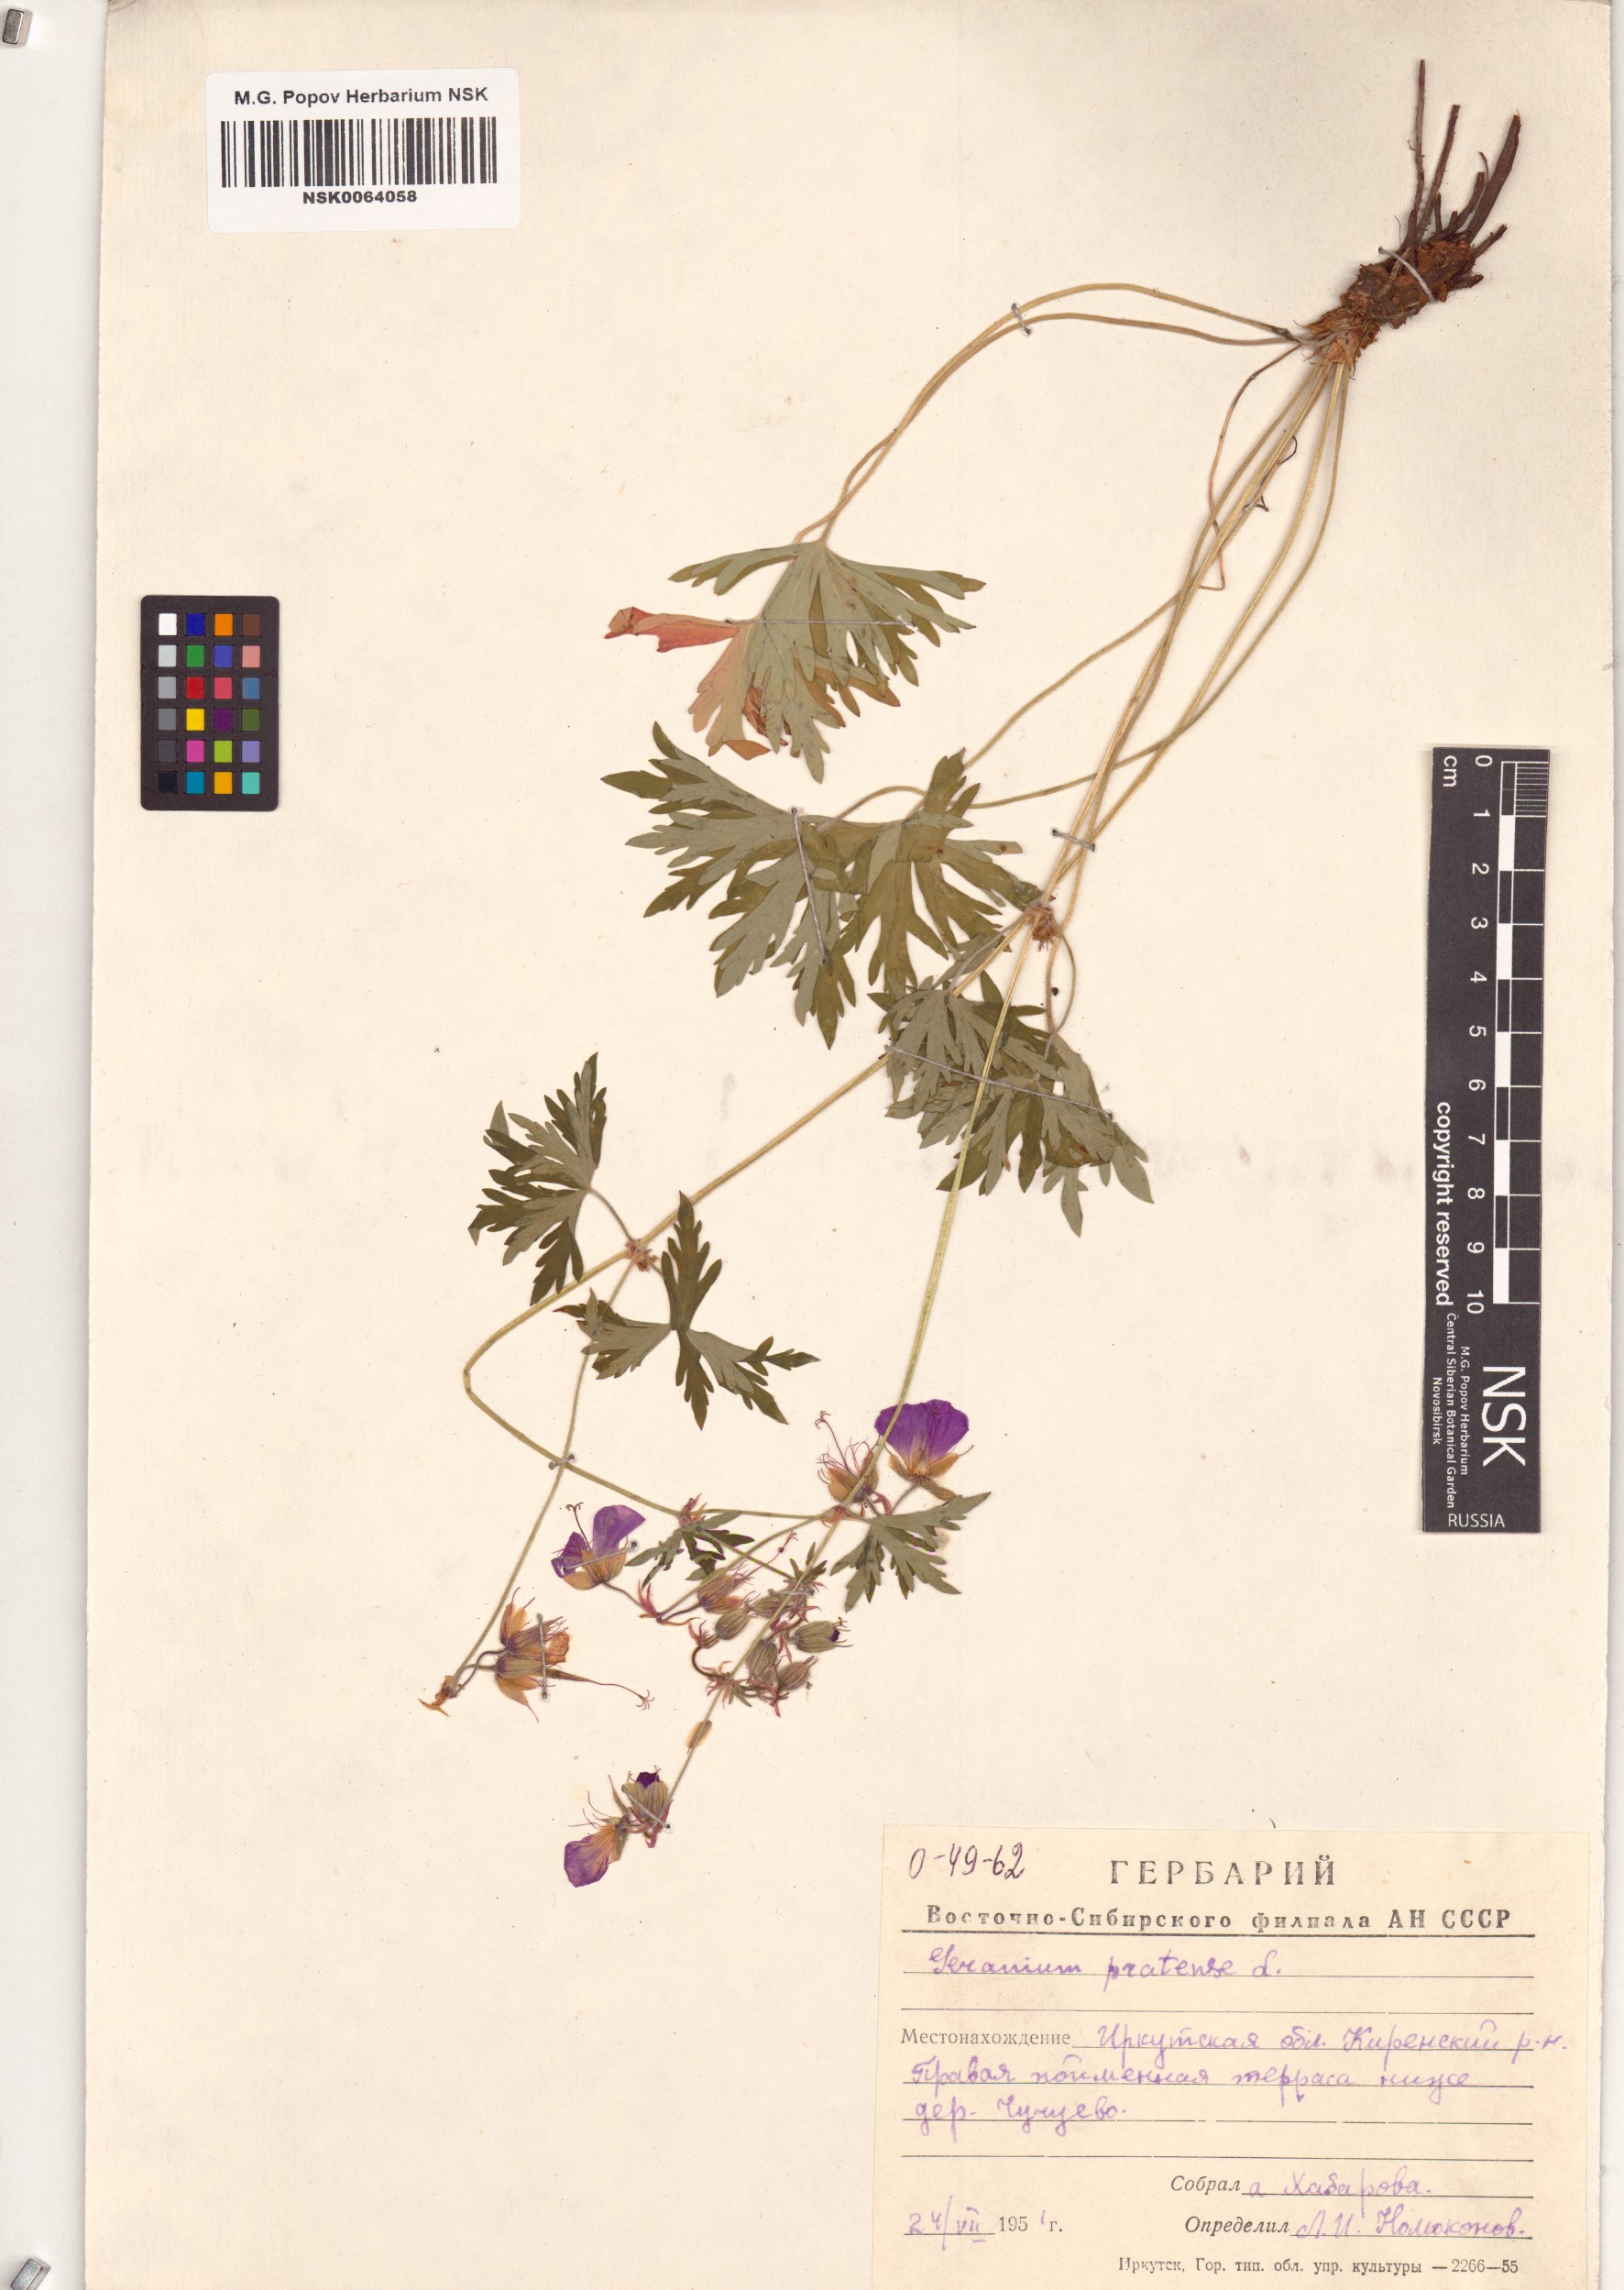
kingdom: Plantae
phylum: Tracheophyta
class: Magnoliopsida
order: Geraniales
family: Geraniaceae
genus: Geranium
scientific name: Geranium pratense
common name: Meadow crane's-bill
